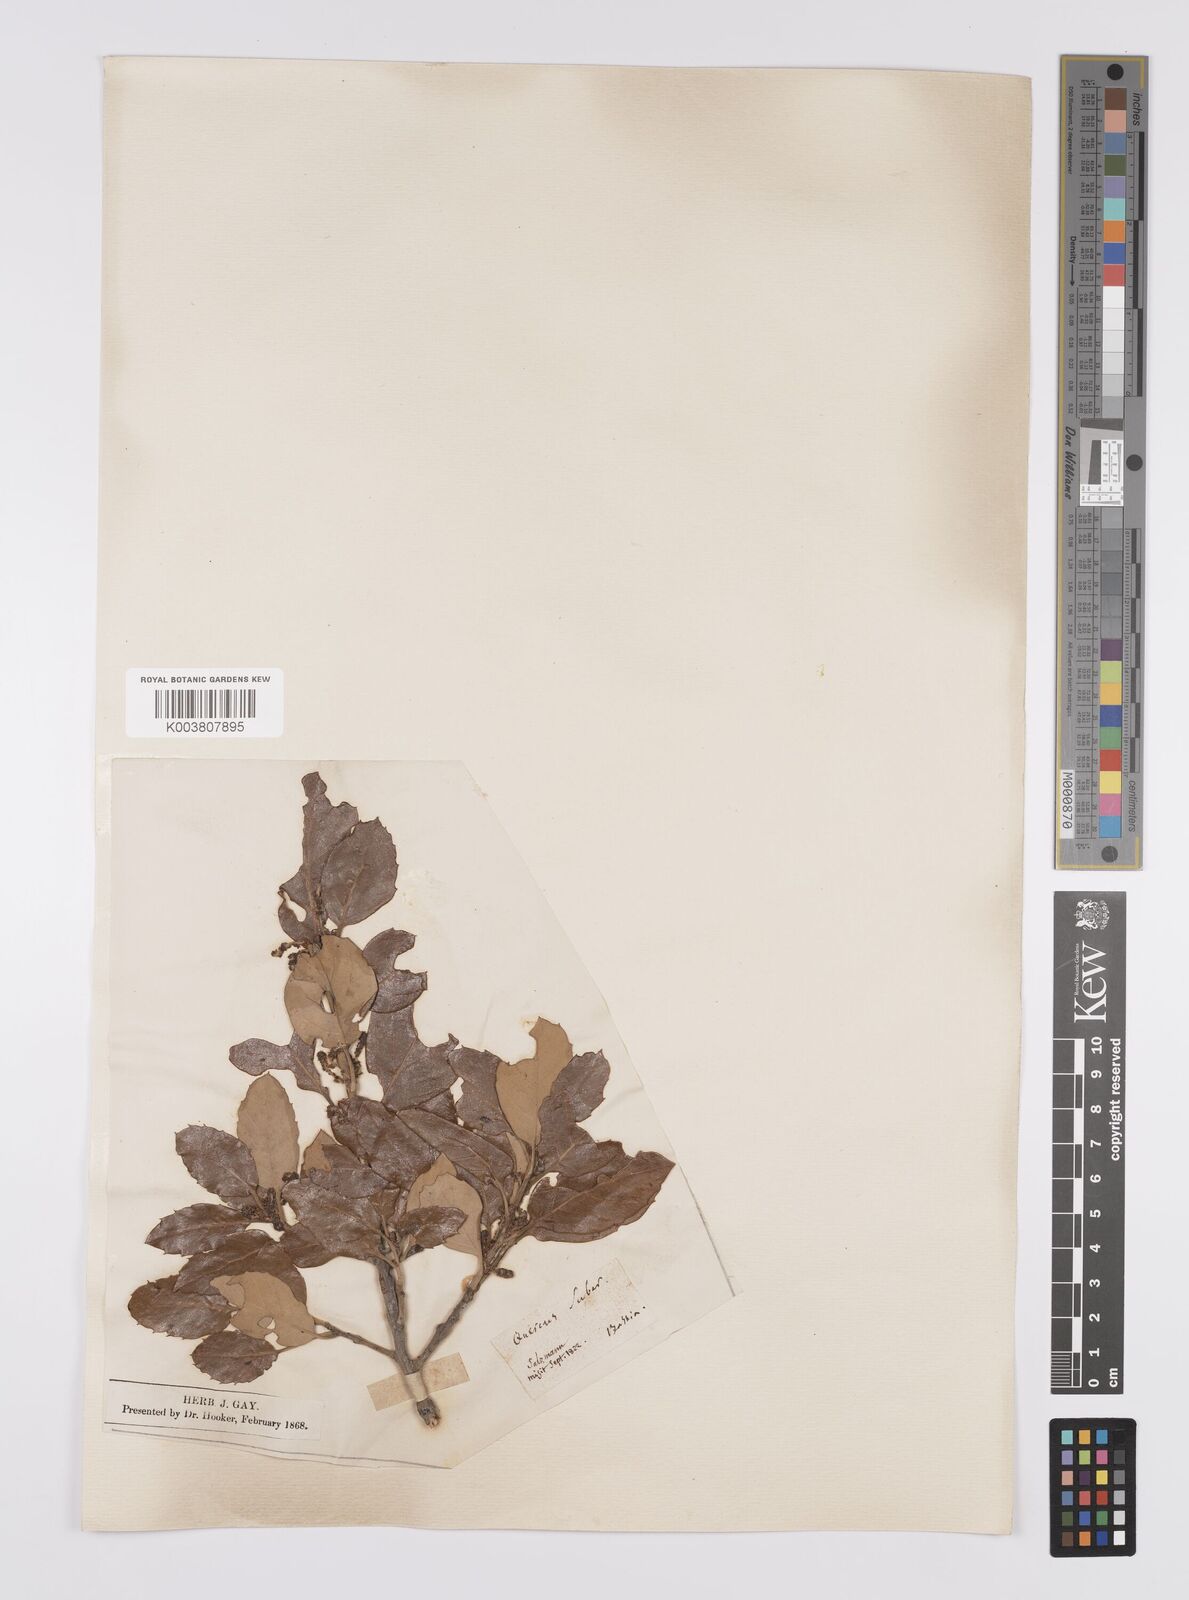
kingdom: Plantae
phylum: Tracheophyta
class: Magnoliopsida
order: Fagales
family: Fagaceae
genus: Quercus
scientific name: Quercus suber
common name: Cork oak
